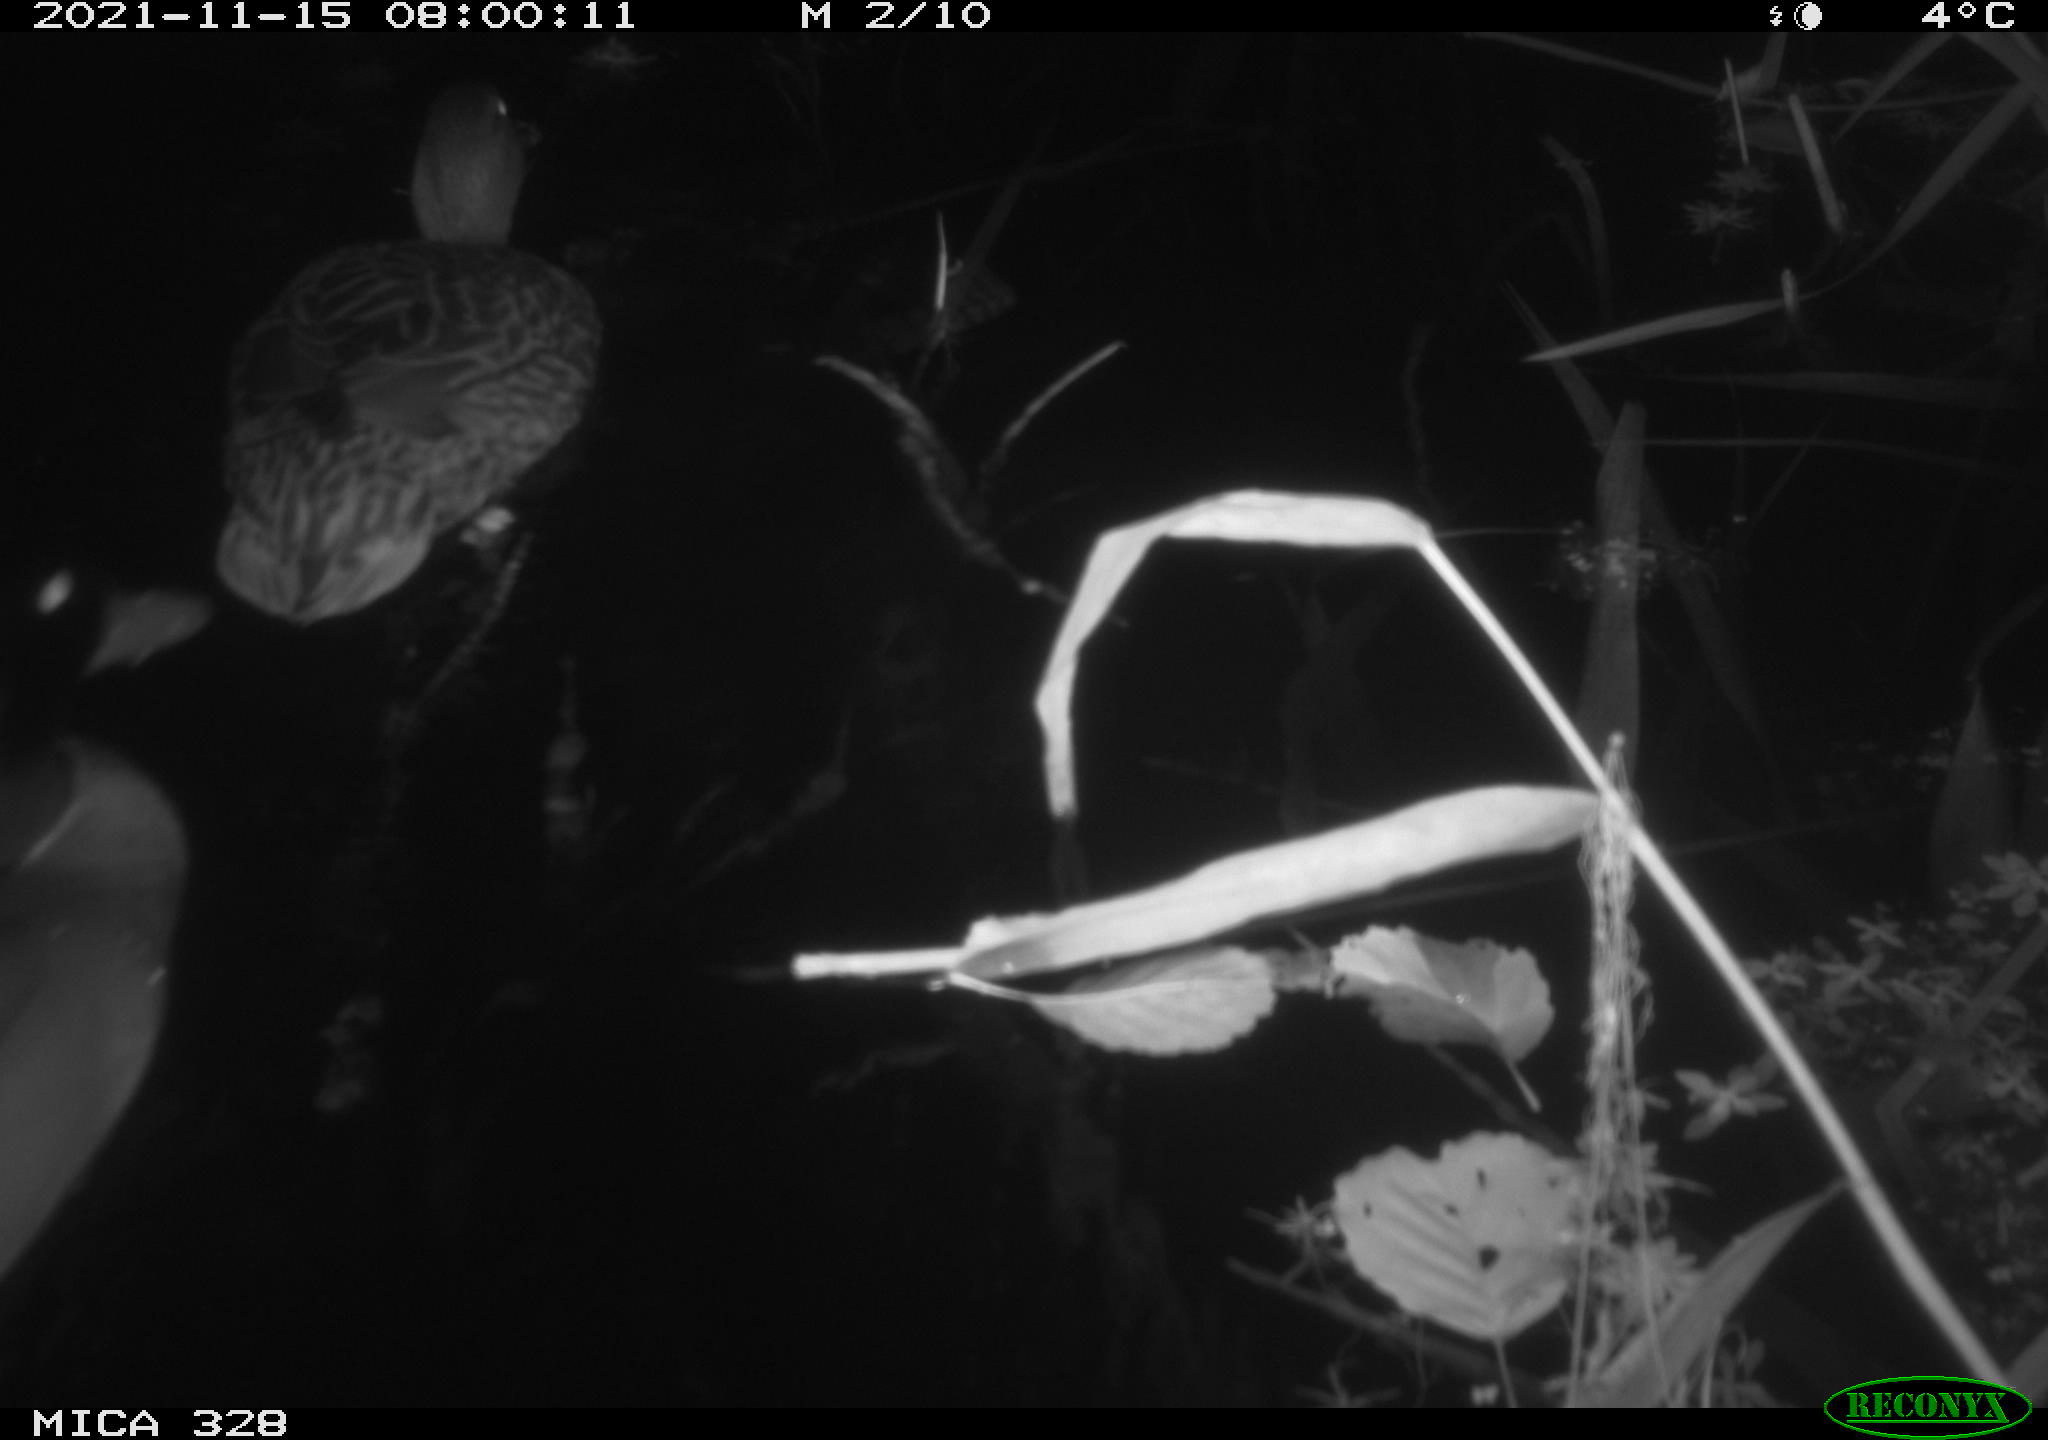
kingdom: Animalia
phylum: Chordata
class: Aves
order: Anseriformes
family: Anatidae
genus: Anas
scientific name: Anas platyrhynchos
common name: Mallard
